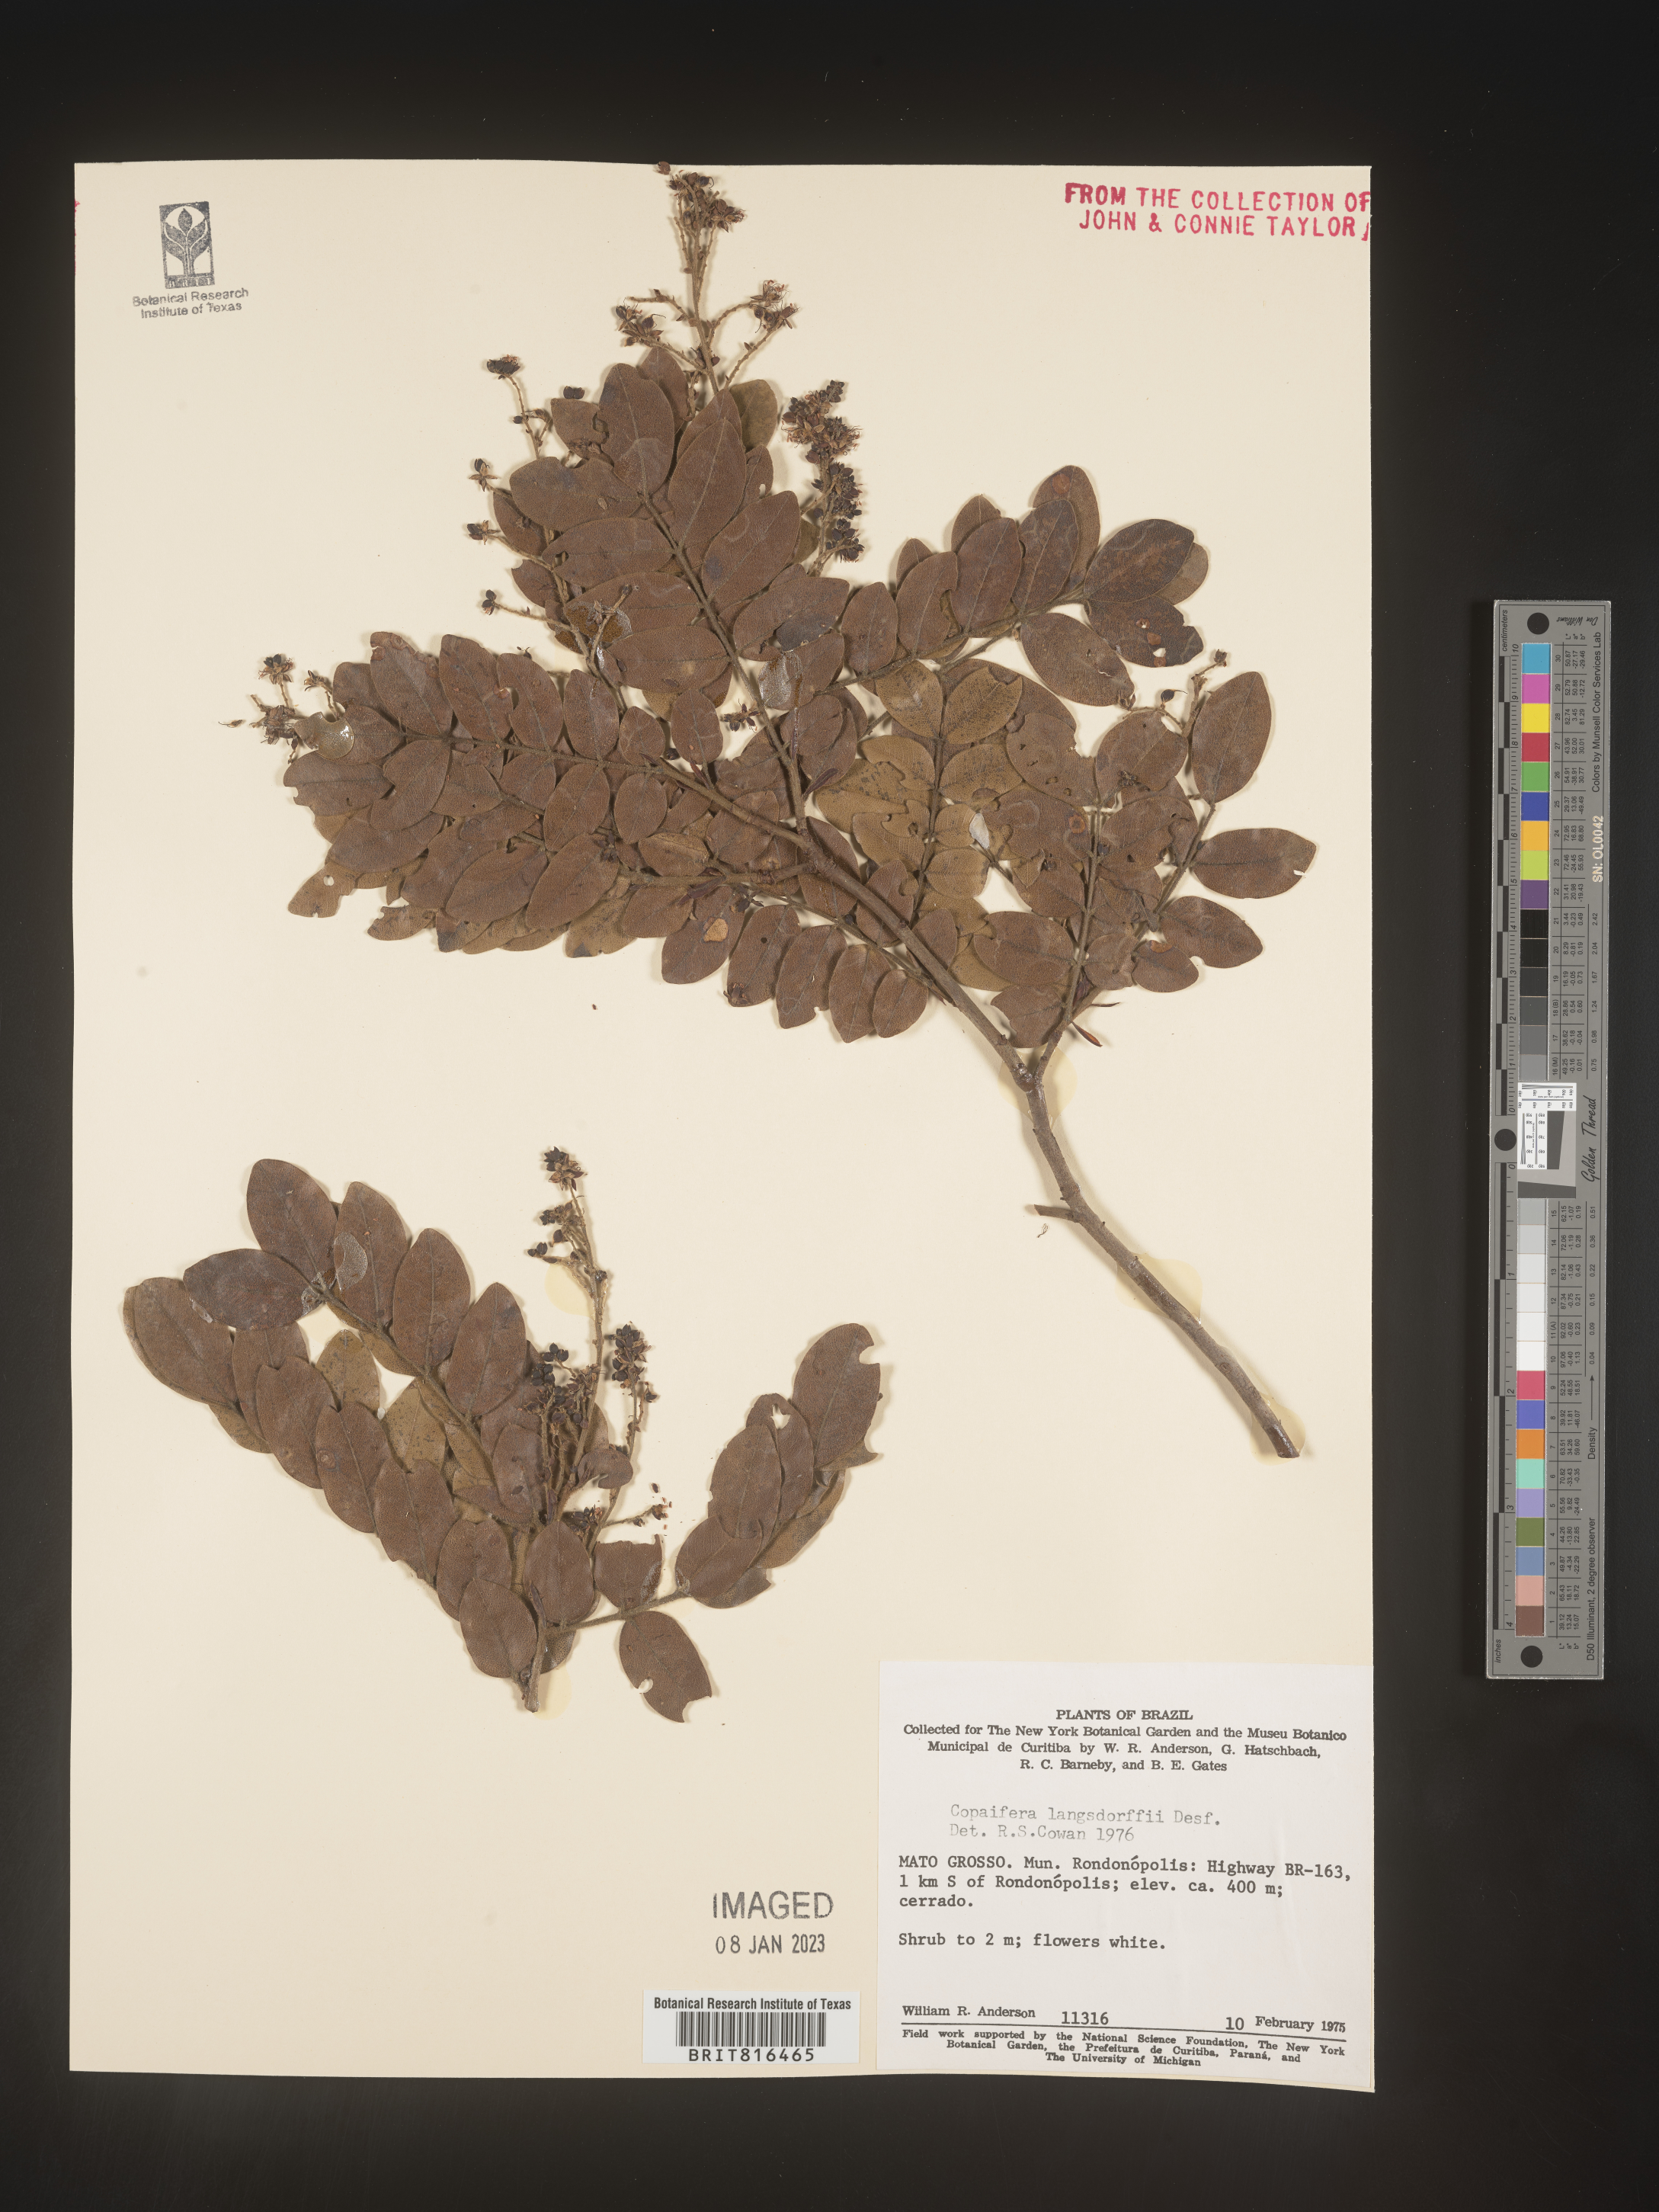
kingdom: Plantae
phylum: Tracheophyta
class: Magnoliopsida
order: Fabales
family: Fabaceae
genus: Copaifera
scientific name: Copaifera
